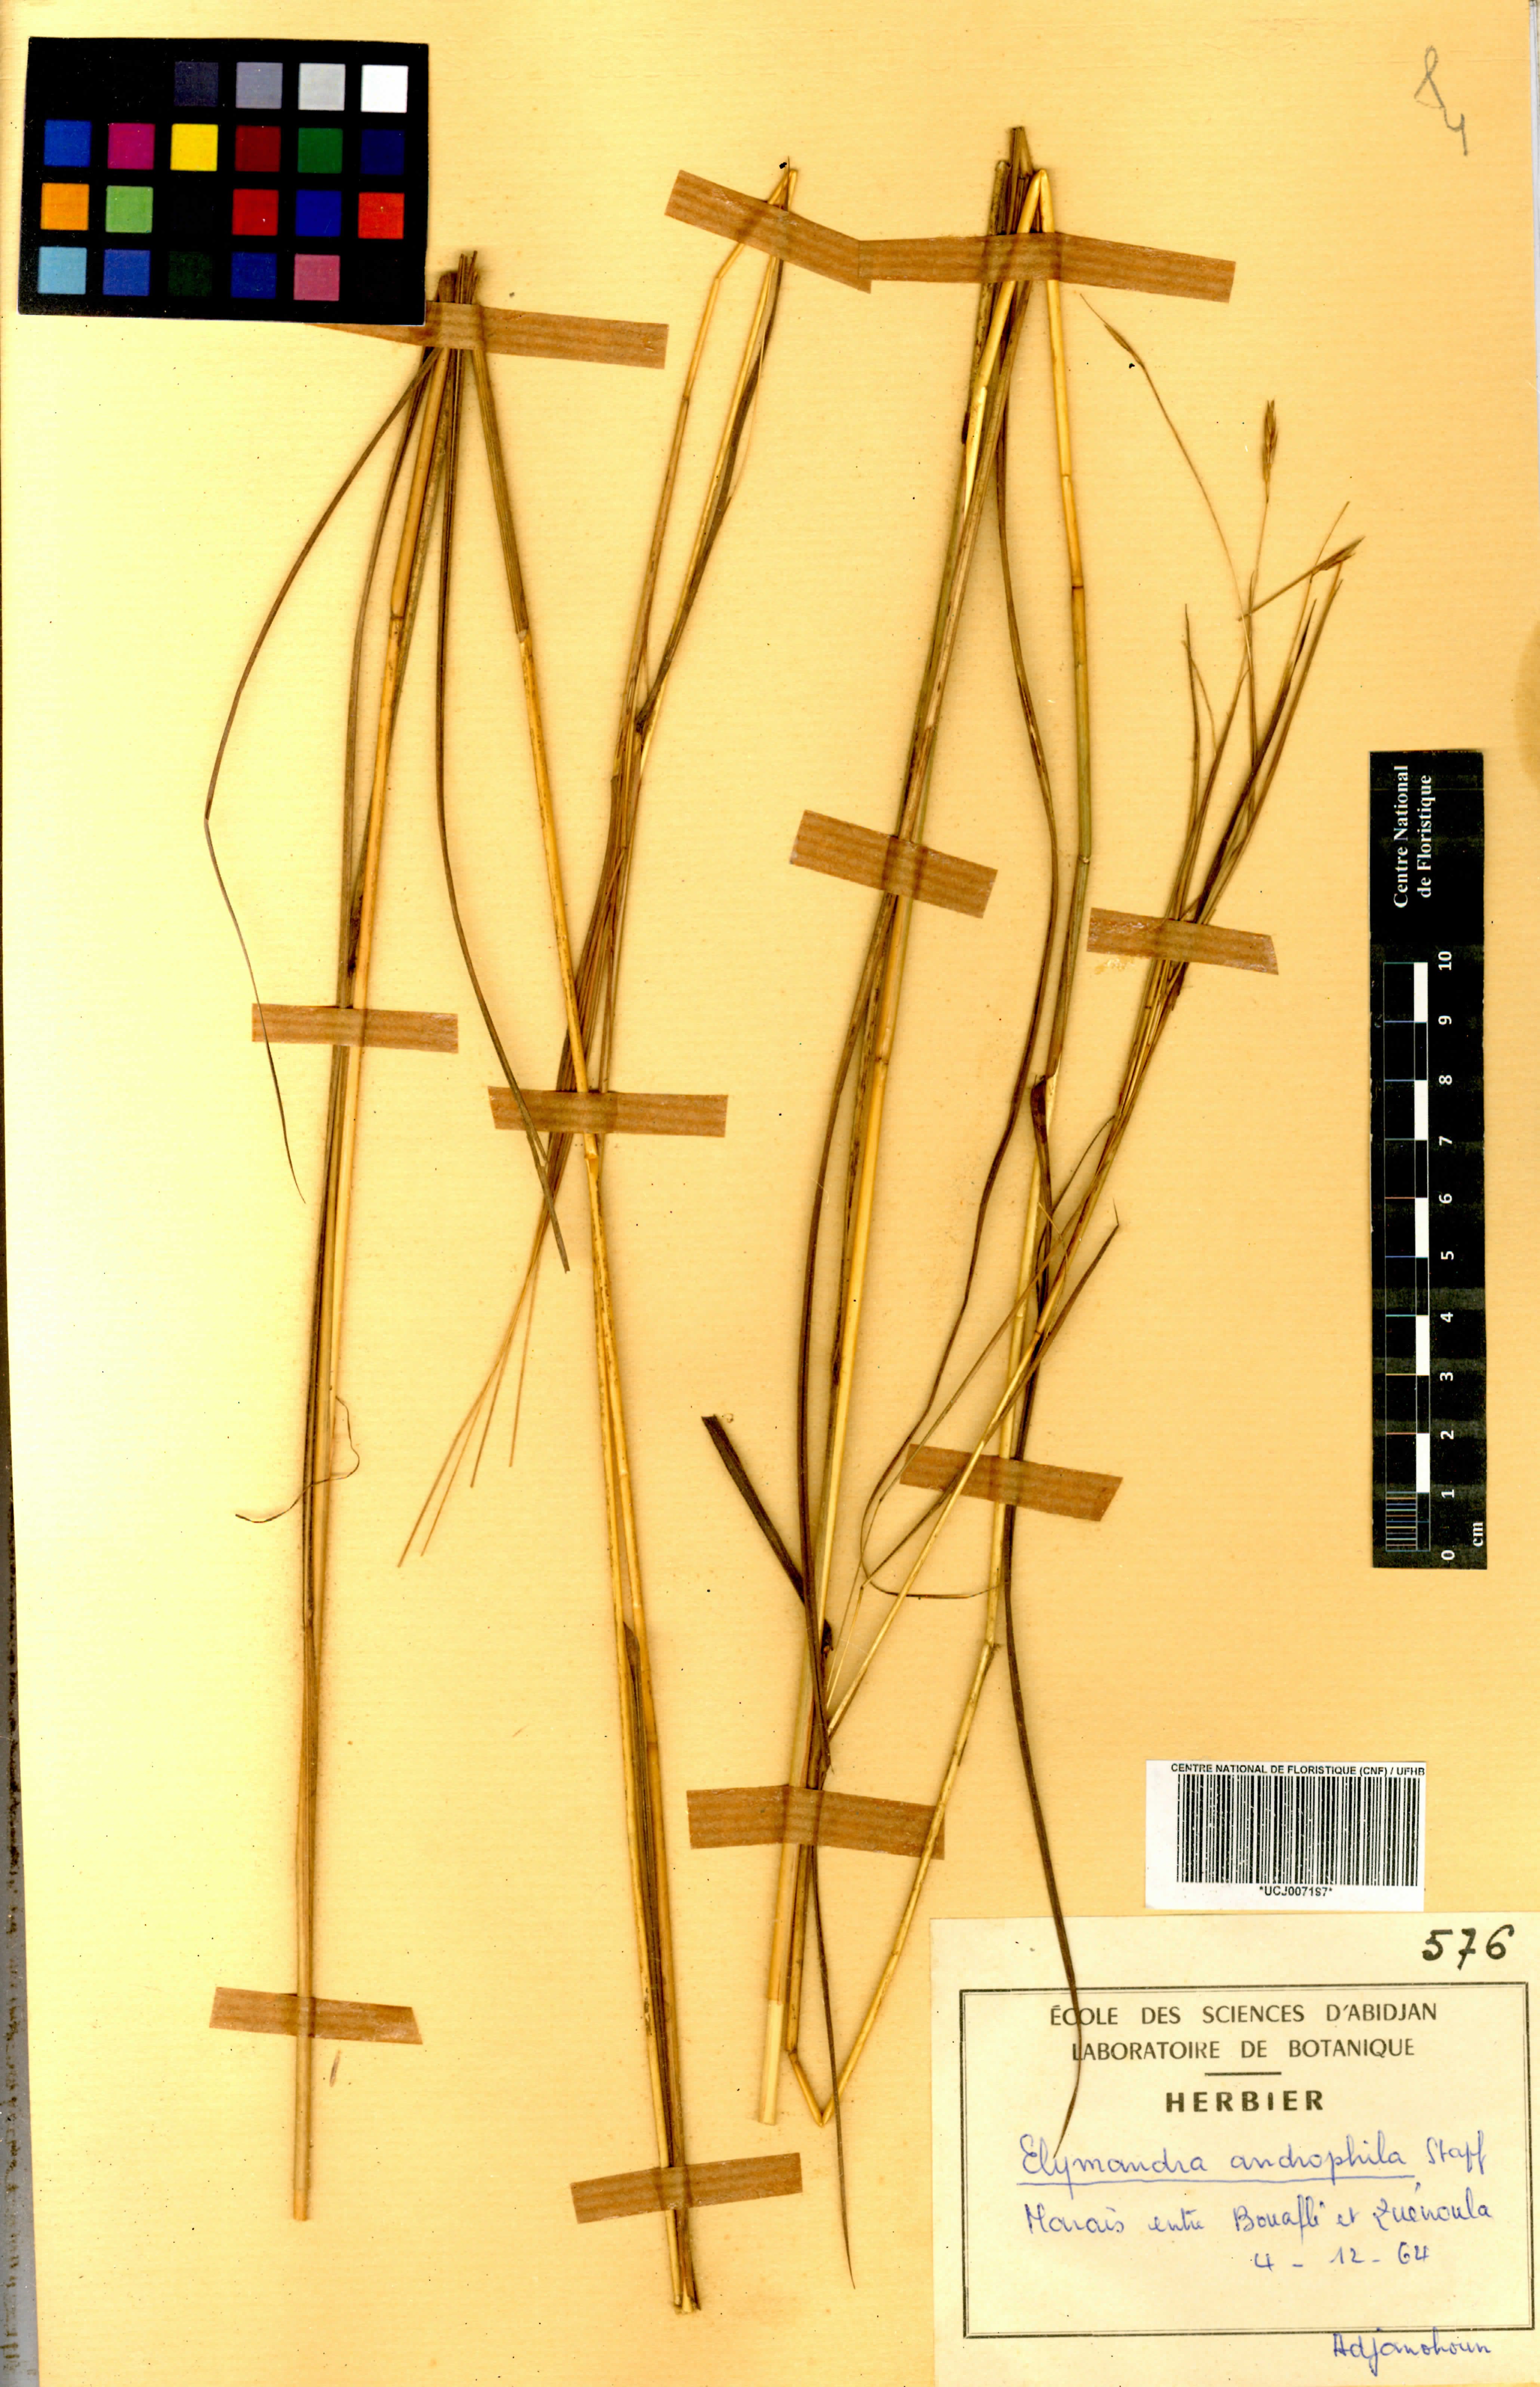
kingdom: Plantae
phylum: Tracheophyta
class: Liliopsida
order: Poales
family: Poaceae
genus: Elymandra
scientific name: Elymandra androphila
